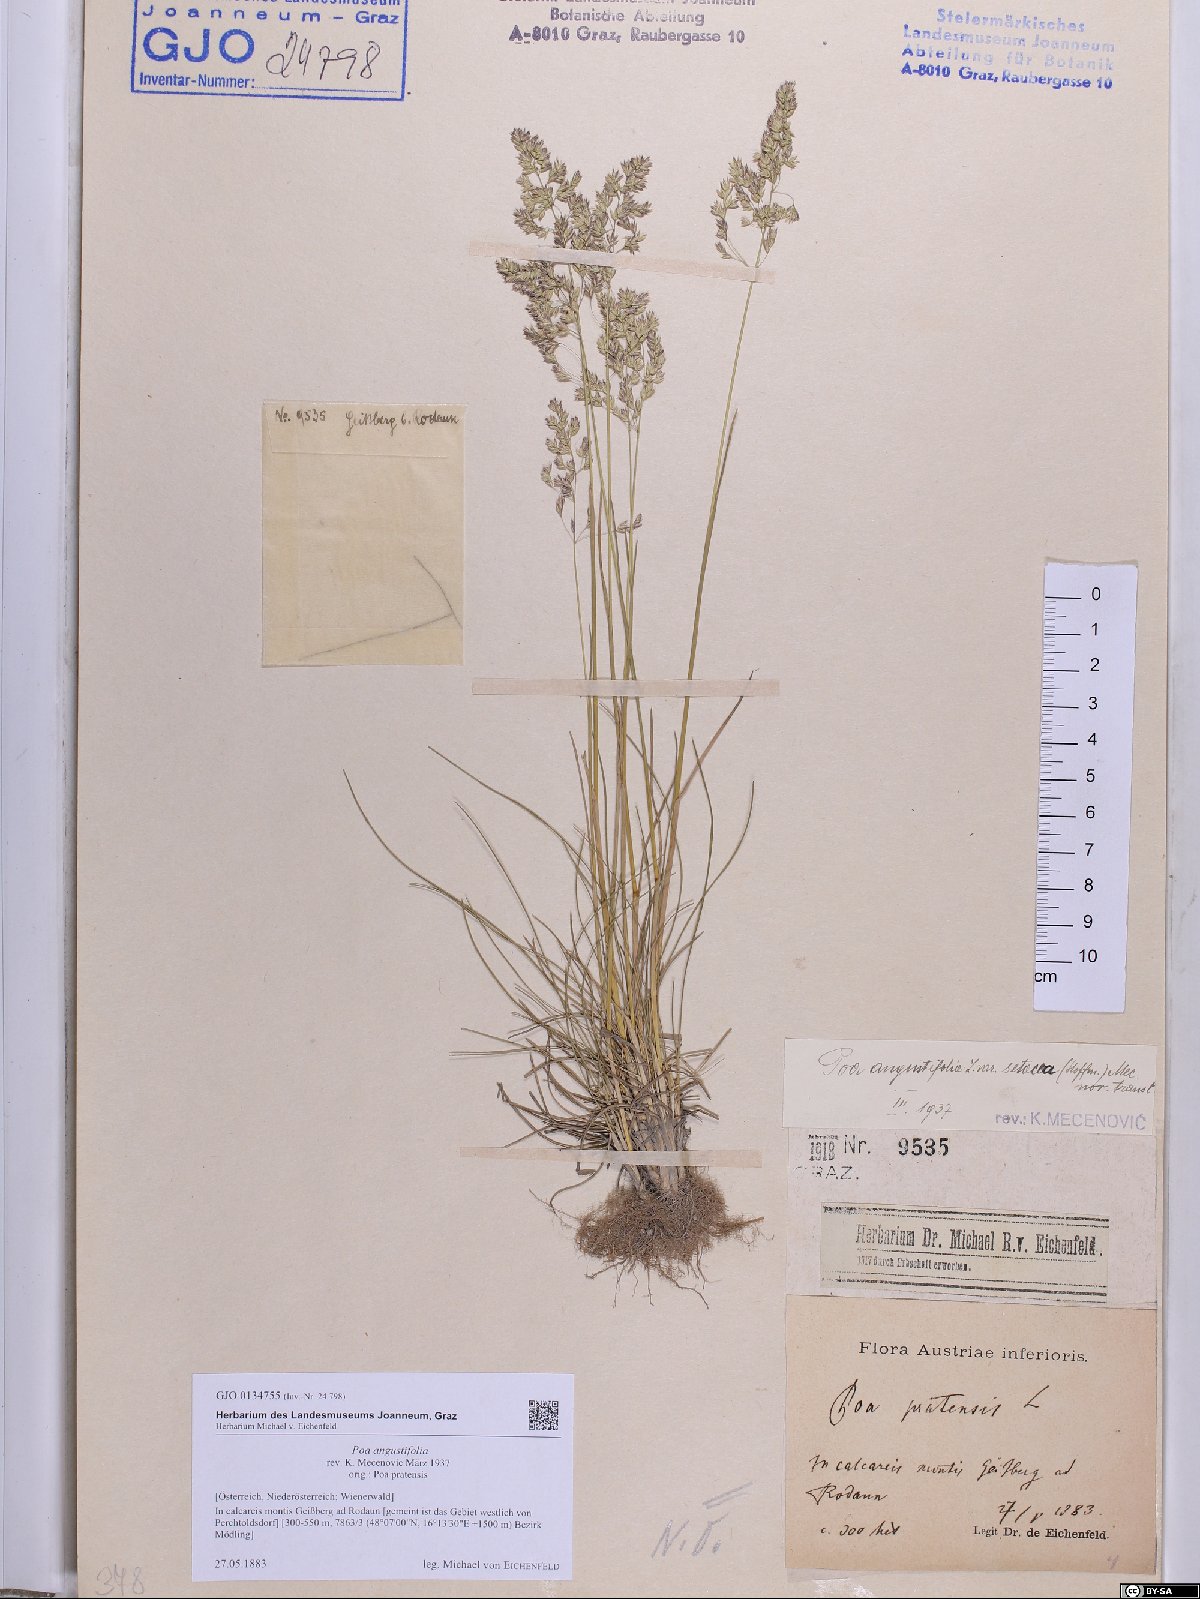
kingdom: Plantae
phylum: Tracheophyta
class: Liliopsida
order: Poales
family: Poaceae
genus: Poa
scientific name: Poa angustifolia
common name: Narrow-leaved meadow-grass
